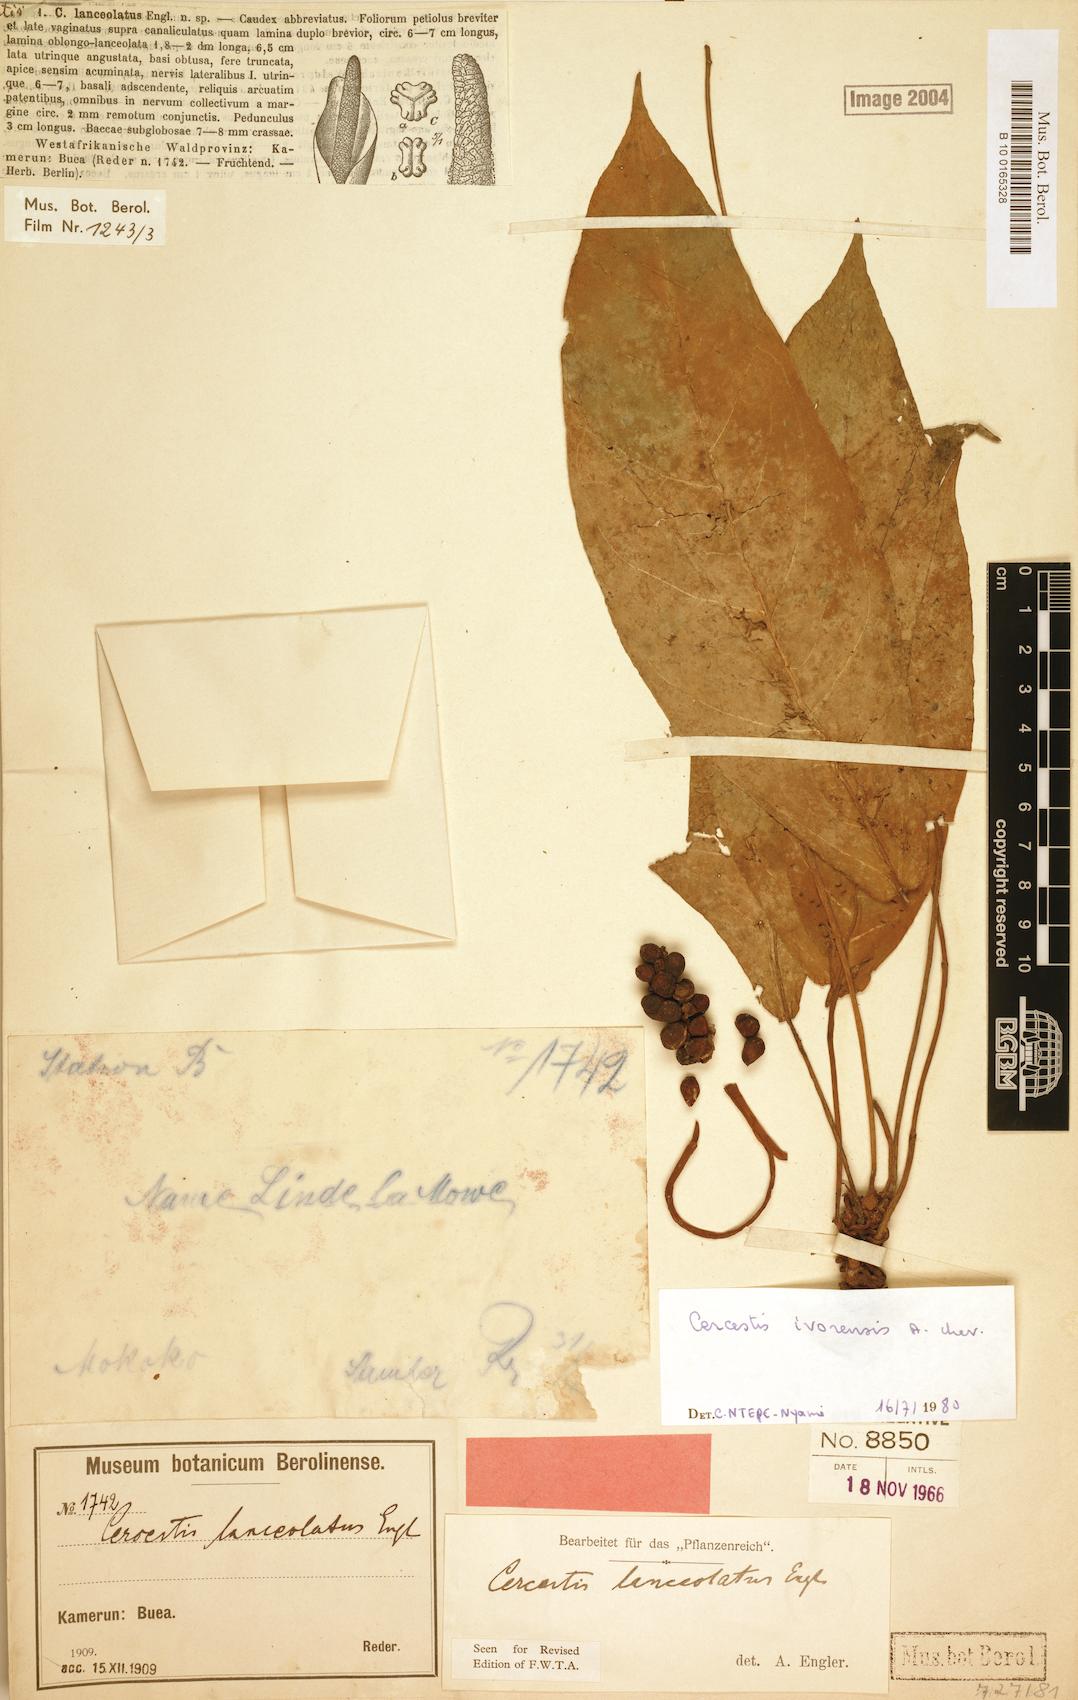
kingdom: Plantae
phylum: Tracheophyta
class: Liliopsida
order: Alismatales
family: Araceae
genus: Cercestis
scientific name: Cercestis ivorensis
